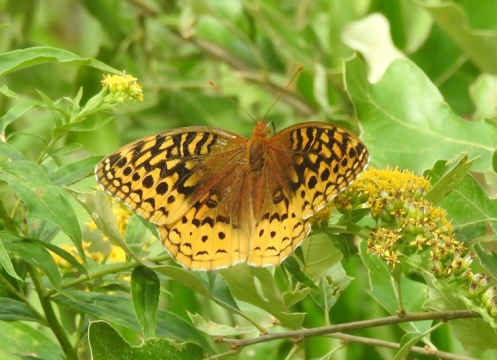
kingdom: Animalia
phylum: Arthropoda
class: Insecta
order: Lepidoptera
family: Nymphalidae
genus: Speyeria
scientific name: Speyeria cybele
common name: Great Spangled Fritillary
